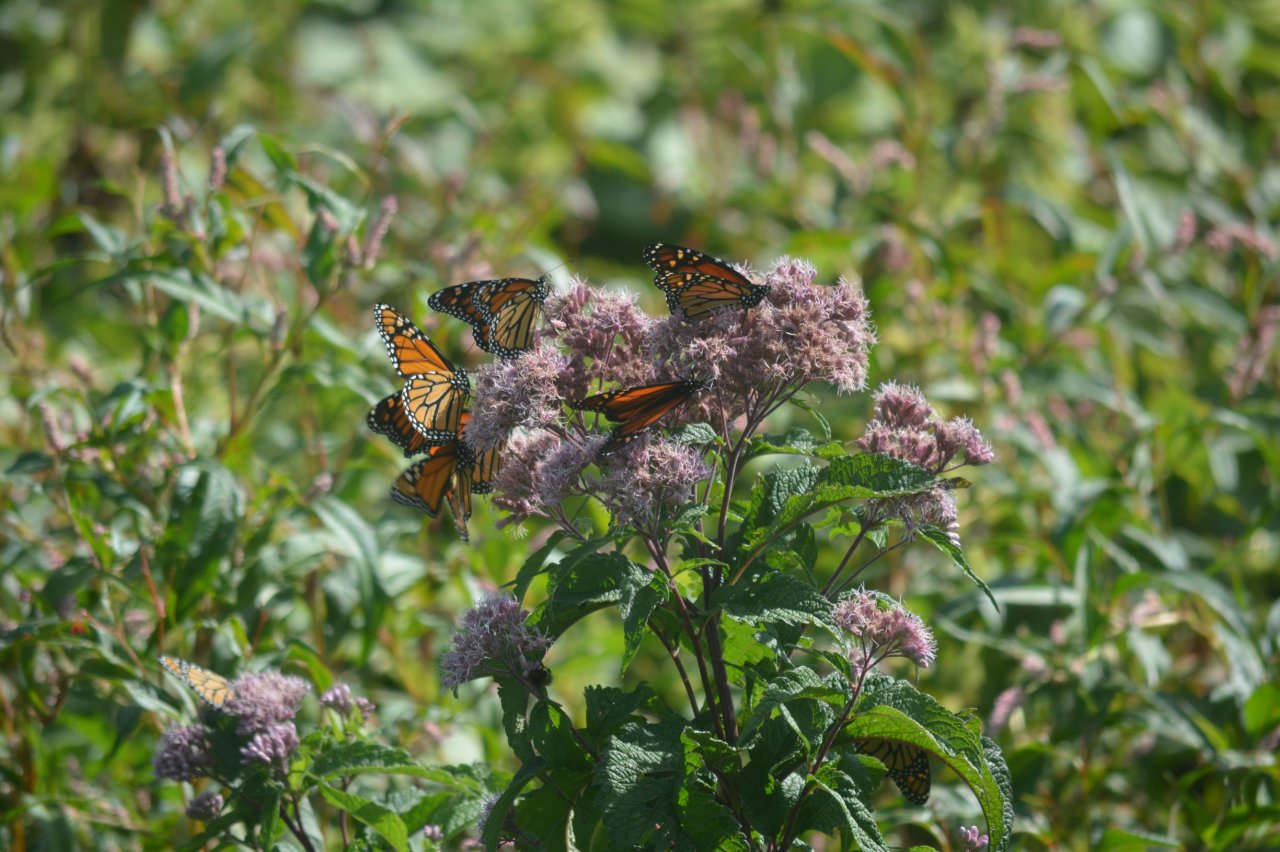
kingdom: Animalia
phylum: Arthropoda
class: Insecta
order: Lepidoptera
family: Nymphalidae
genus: Danaus
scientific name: Danaus plexippus
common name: Monarch
